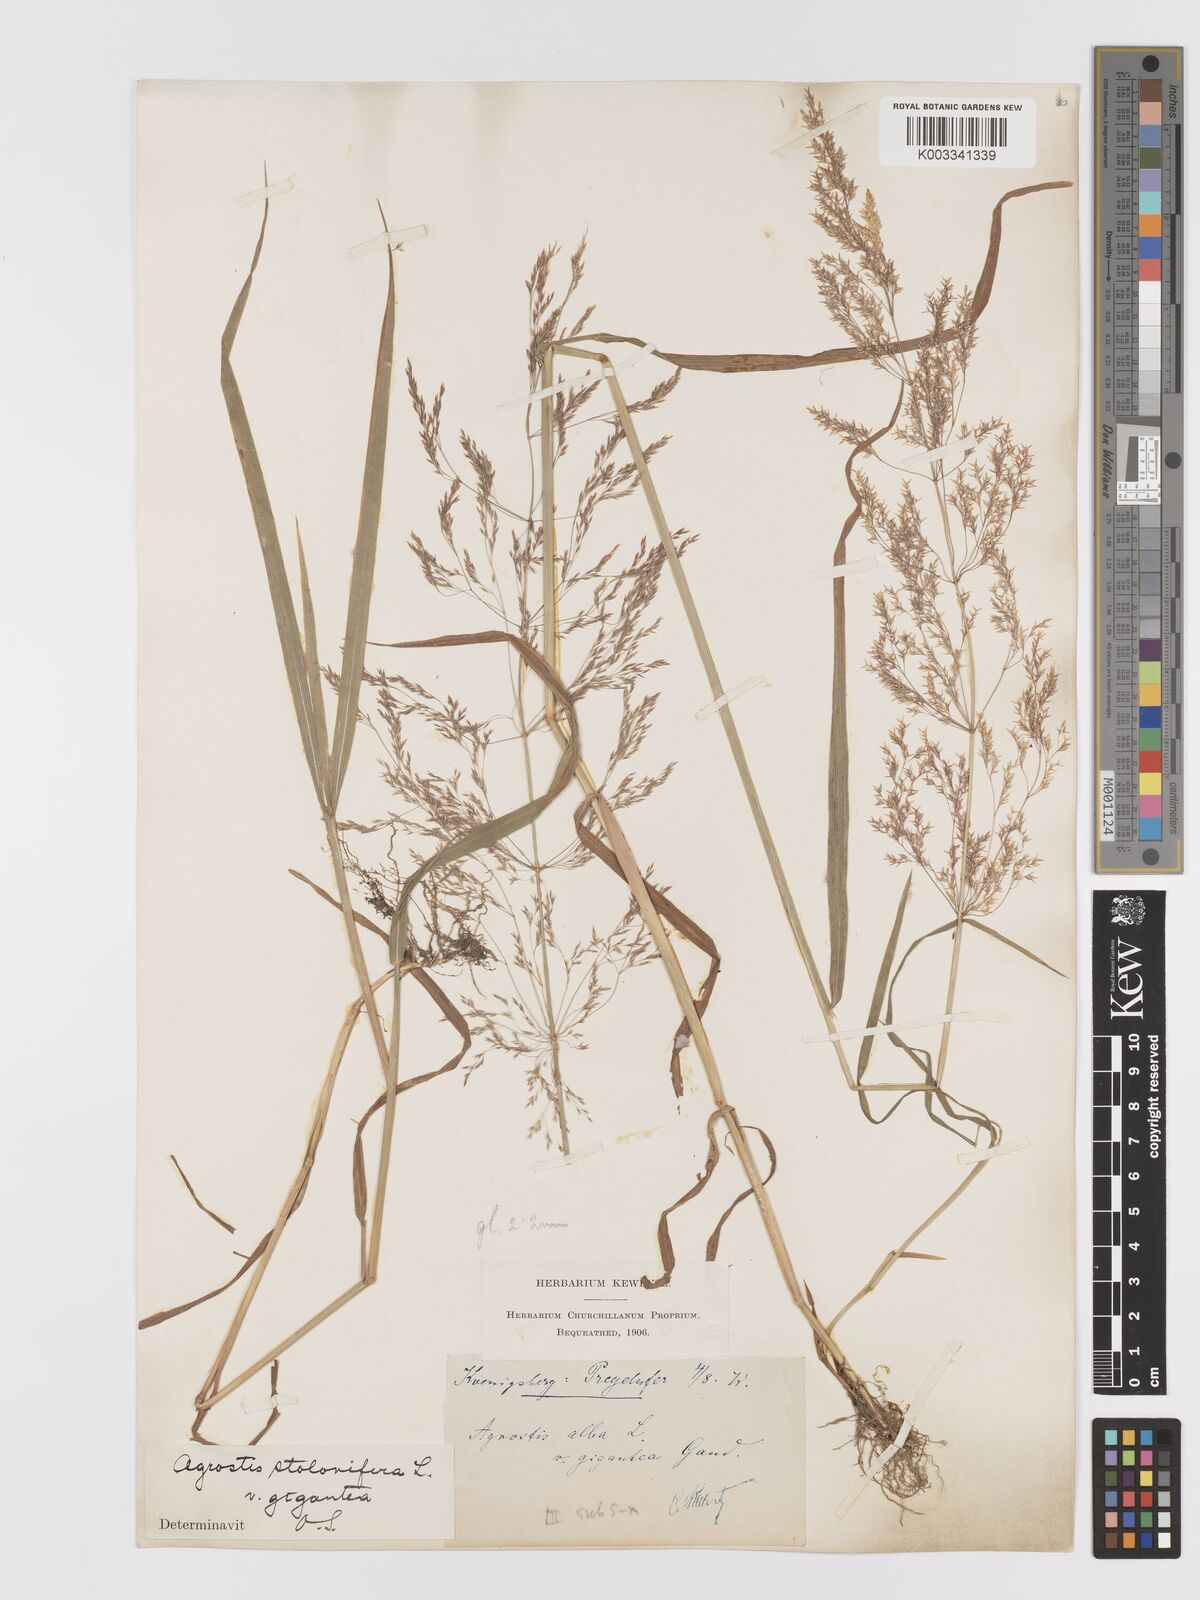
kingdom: Plantae
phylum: Tracheophyta
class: Liliopsida
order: Poales
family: Poaceae
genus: Agrostis
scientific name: Agrostis gigantea
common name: Black bent
